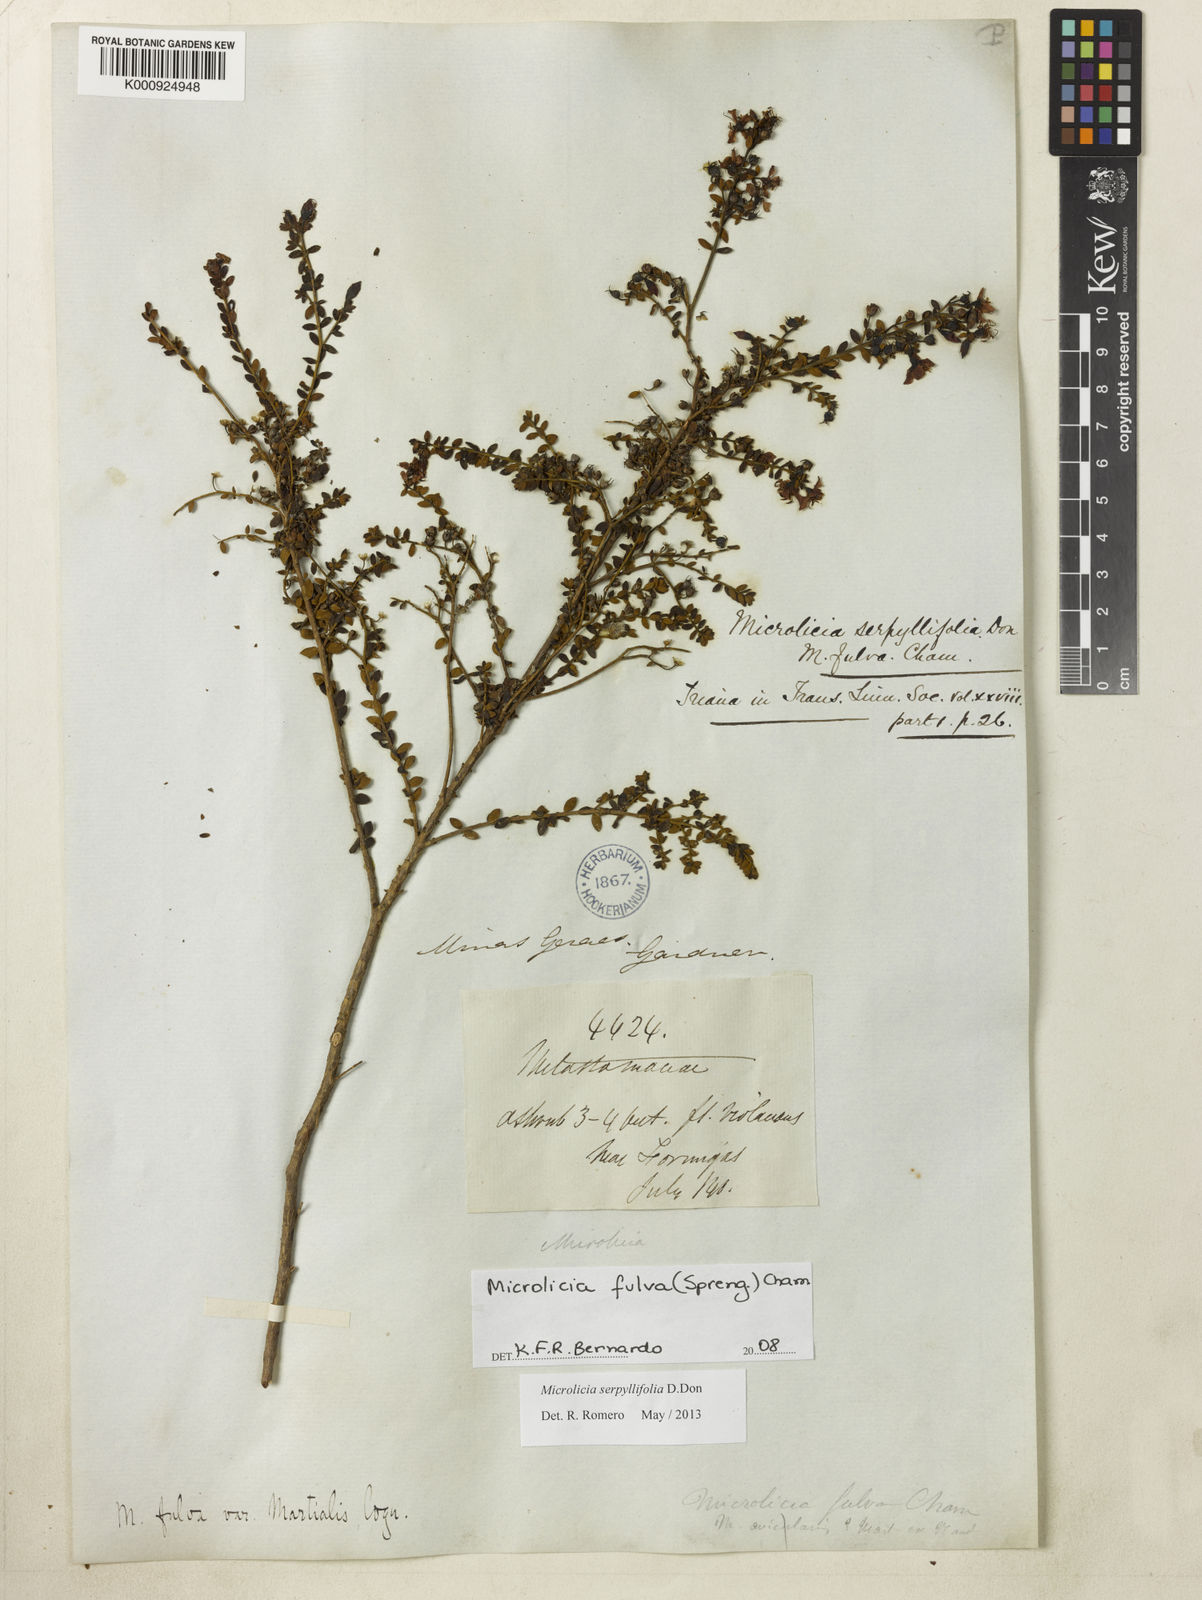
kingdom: Plantae
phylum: Tracheophyta
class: Magnoliopsida
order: Myrtales
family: Melastomataceae
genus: Microlicia
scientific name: Microlicia fulva
